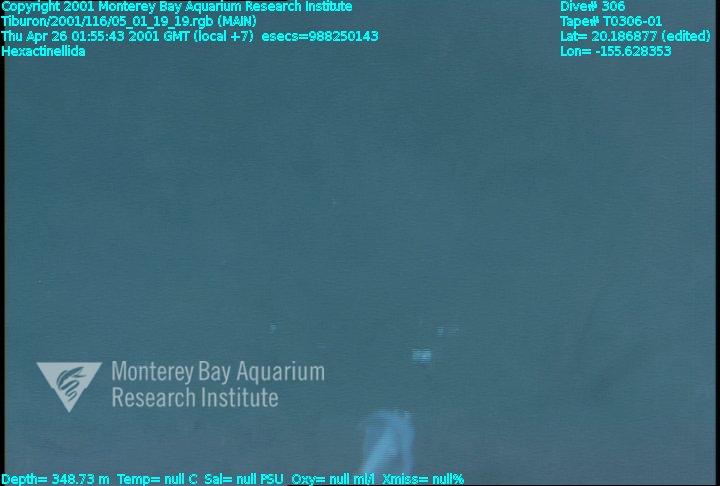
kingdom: Animalia
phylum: Porifera
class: Hexactinellida
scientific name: Hexactinellida
